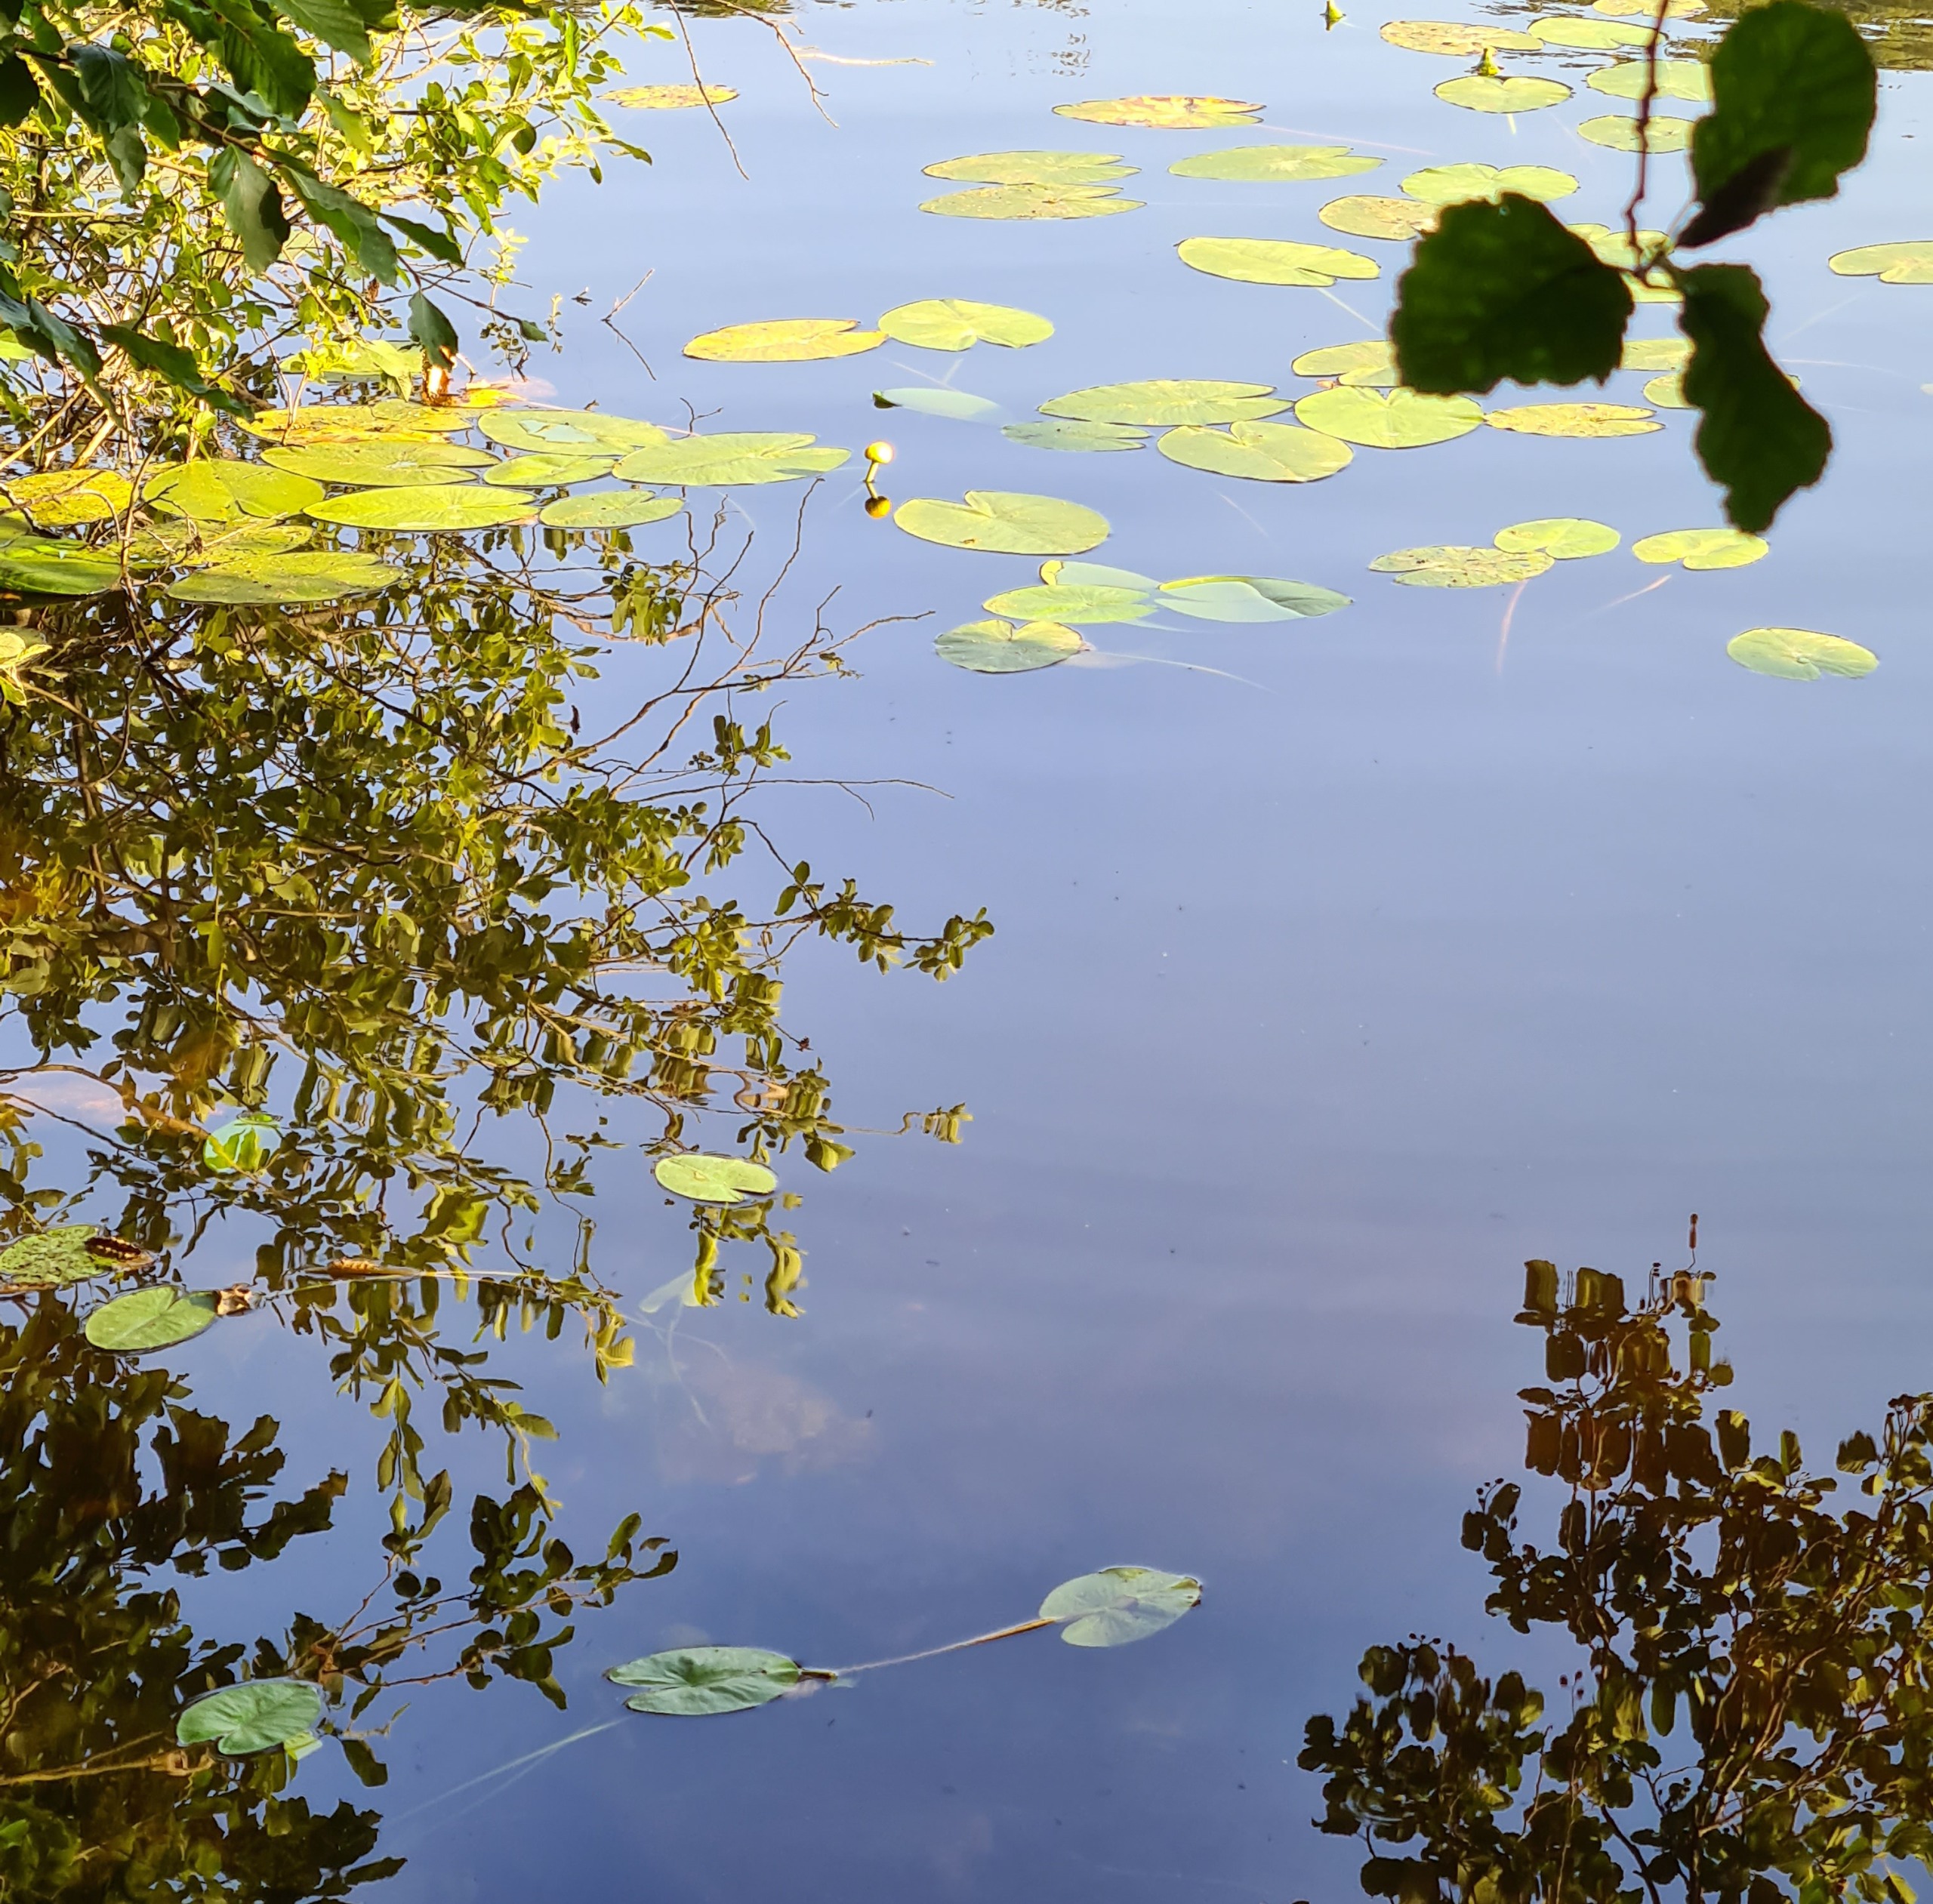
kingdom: Plantae
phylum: Tracheophyta
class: Magnoliopsida
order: Nymphaeales
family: Nymphaeaceae
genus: Nuphar
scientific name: Nuphar lutea
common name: Gul åkande
